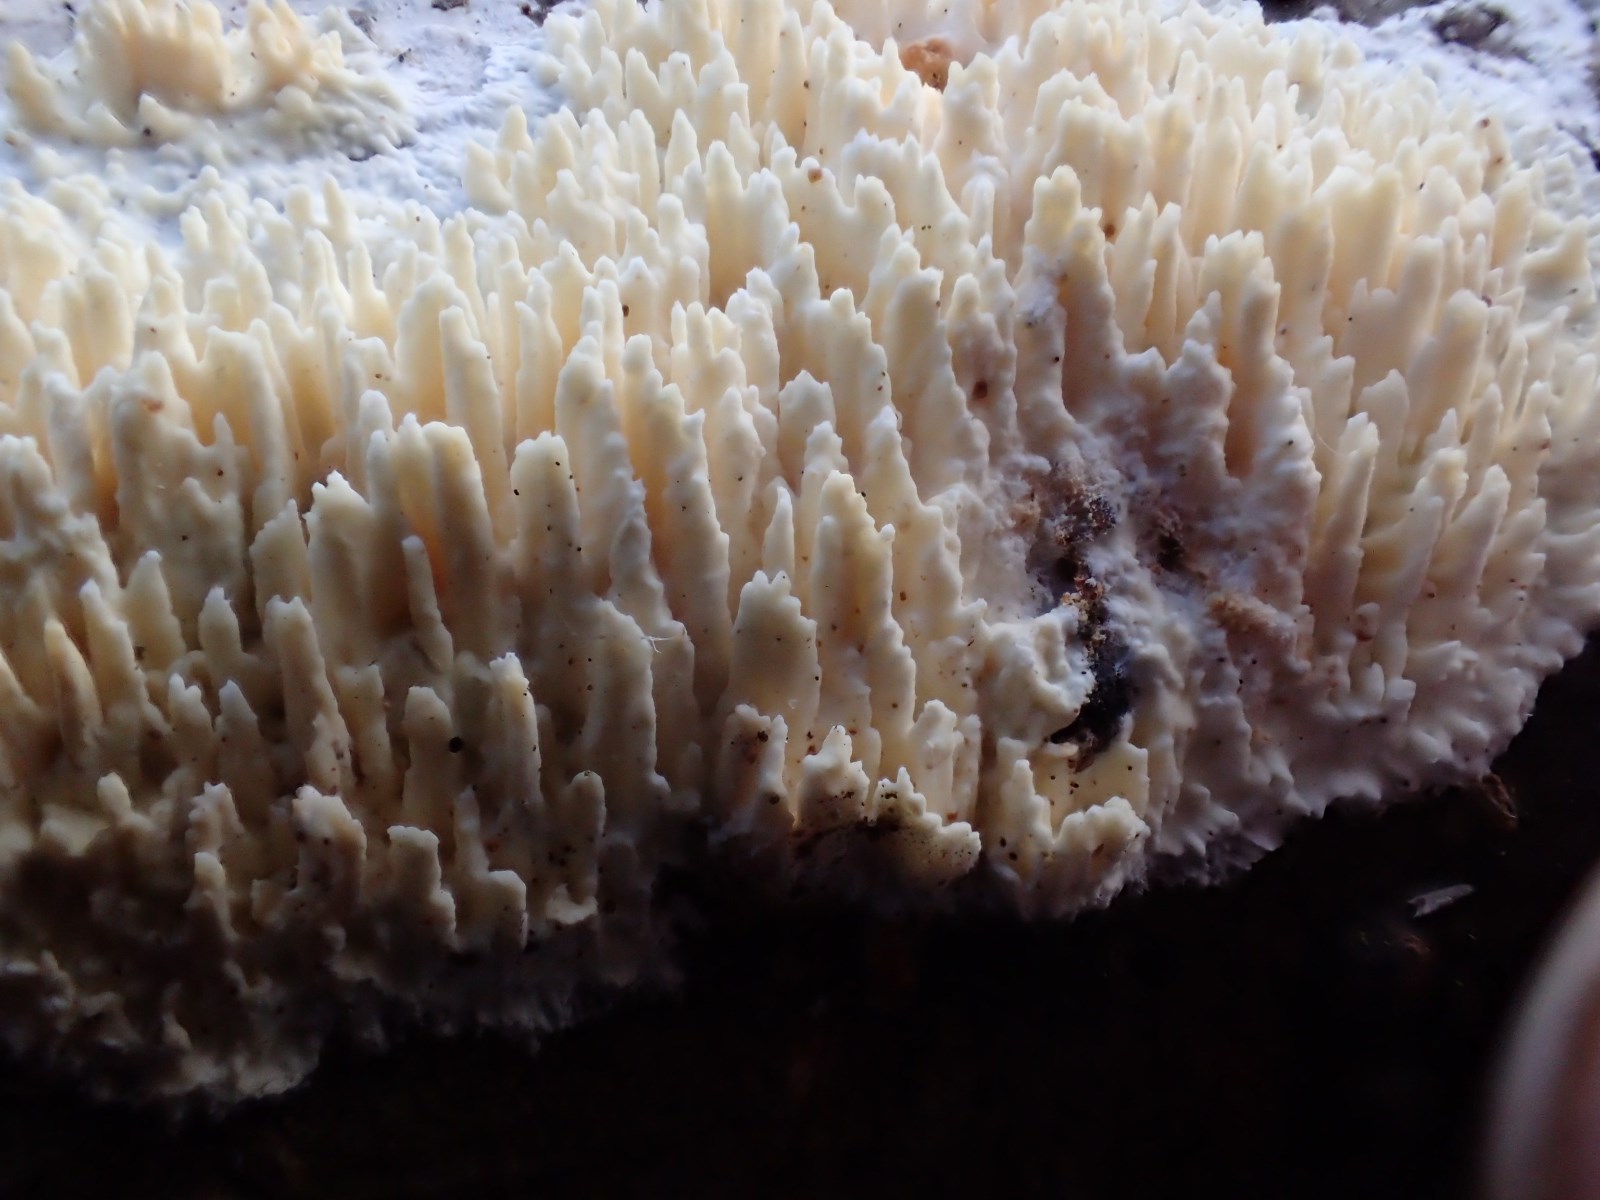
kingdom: Fungi
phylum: Basidiomycota
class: Agaricomycetes
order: Hymenochaetales
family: Schizoporaceae
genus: Xylodon
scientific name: Xylodon radula
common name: grovtandet kalkskind
